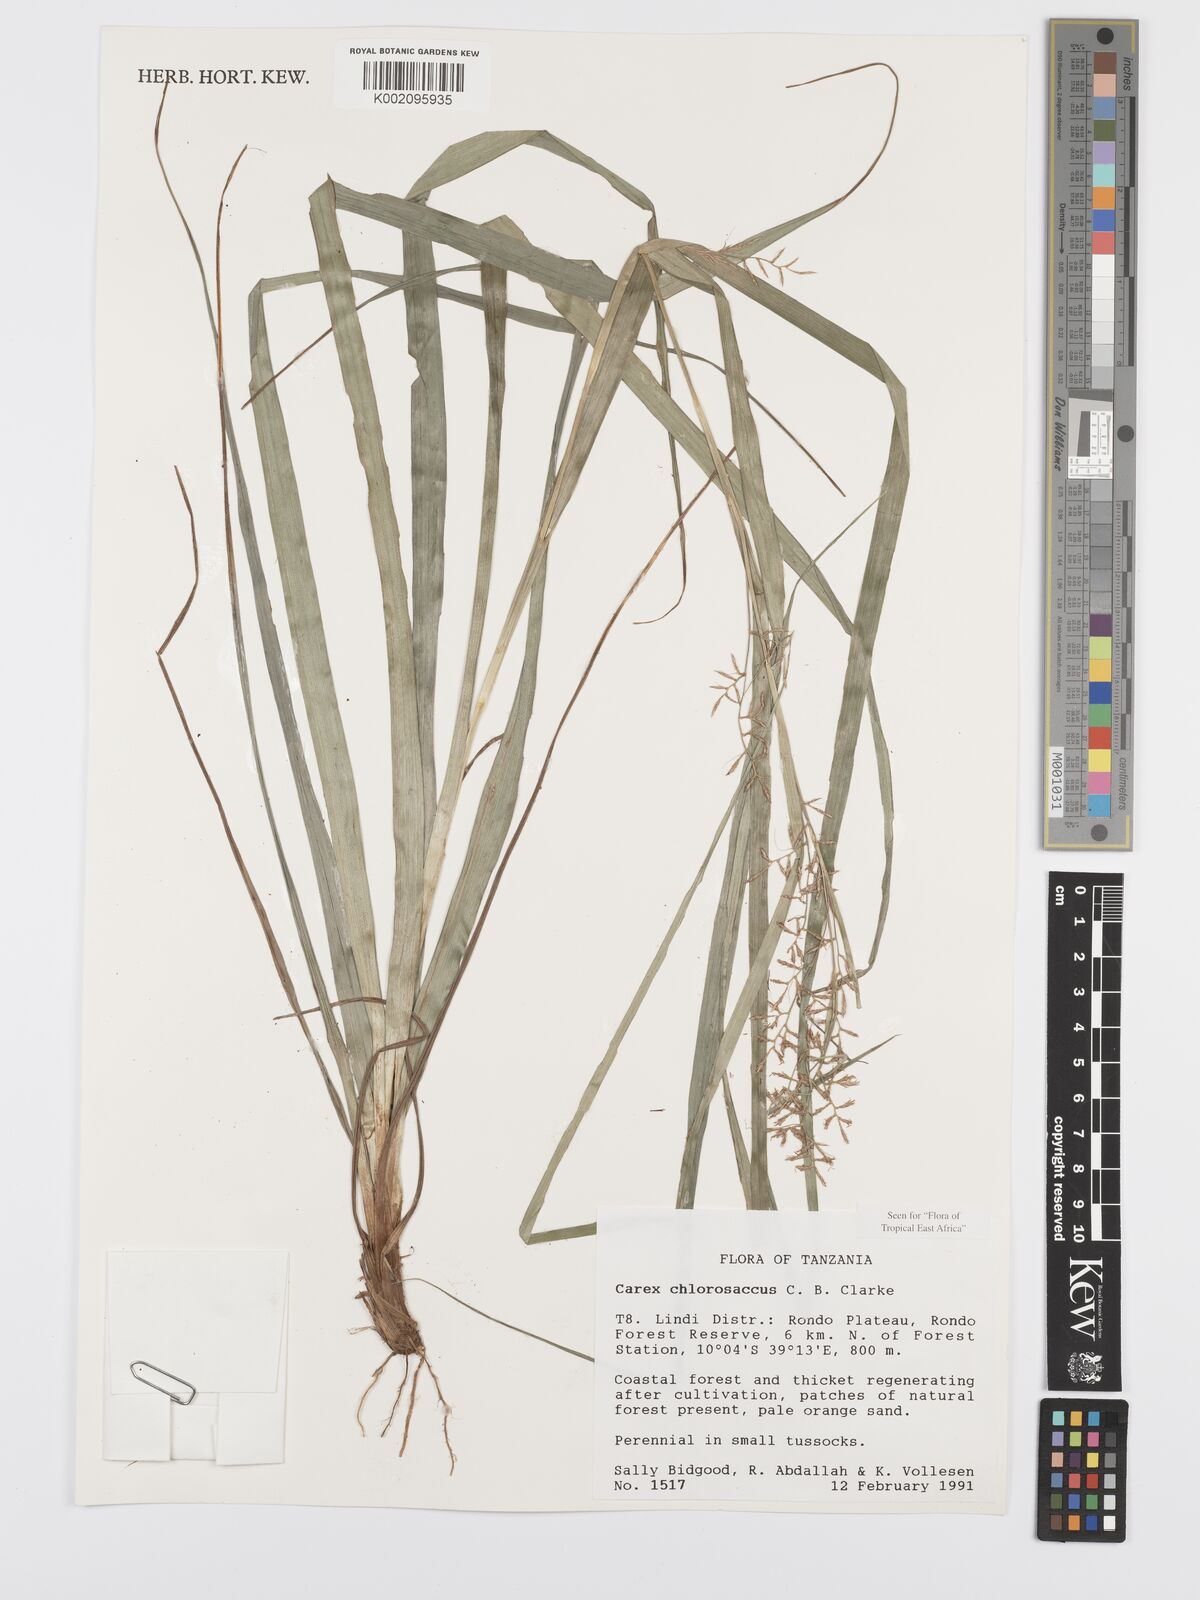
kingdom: Plantae
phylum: Tracheophyta
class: Liliopsida
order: Poales
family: Cyperaceae
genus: Carex
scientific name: Carex chlorosaccus
